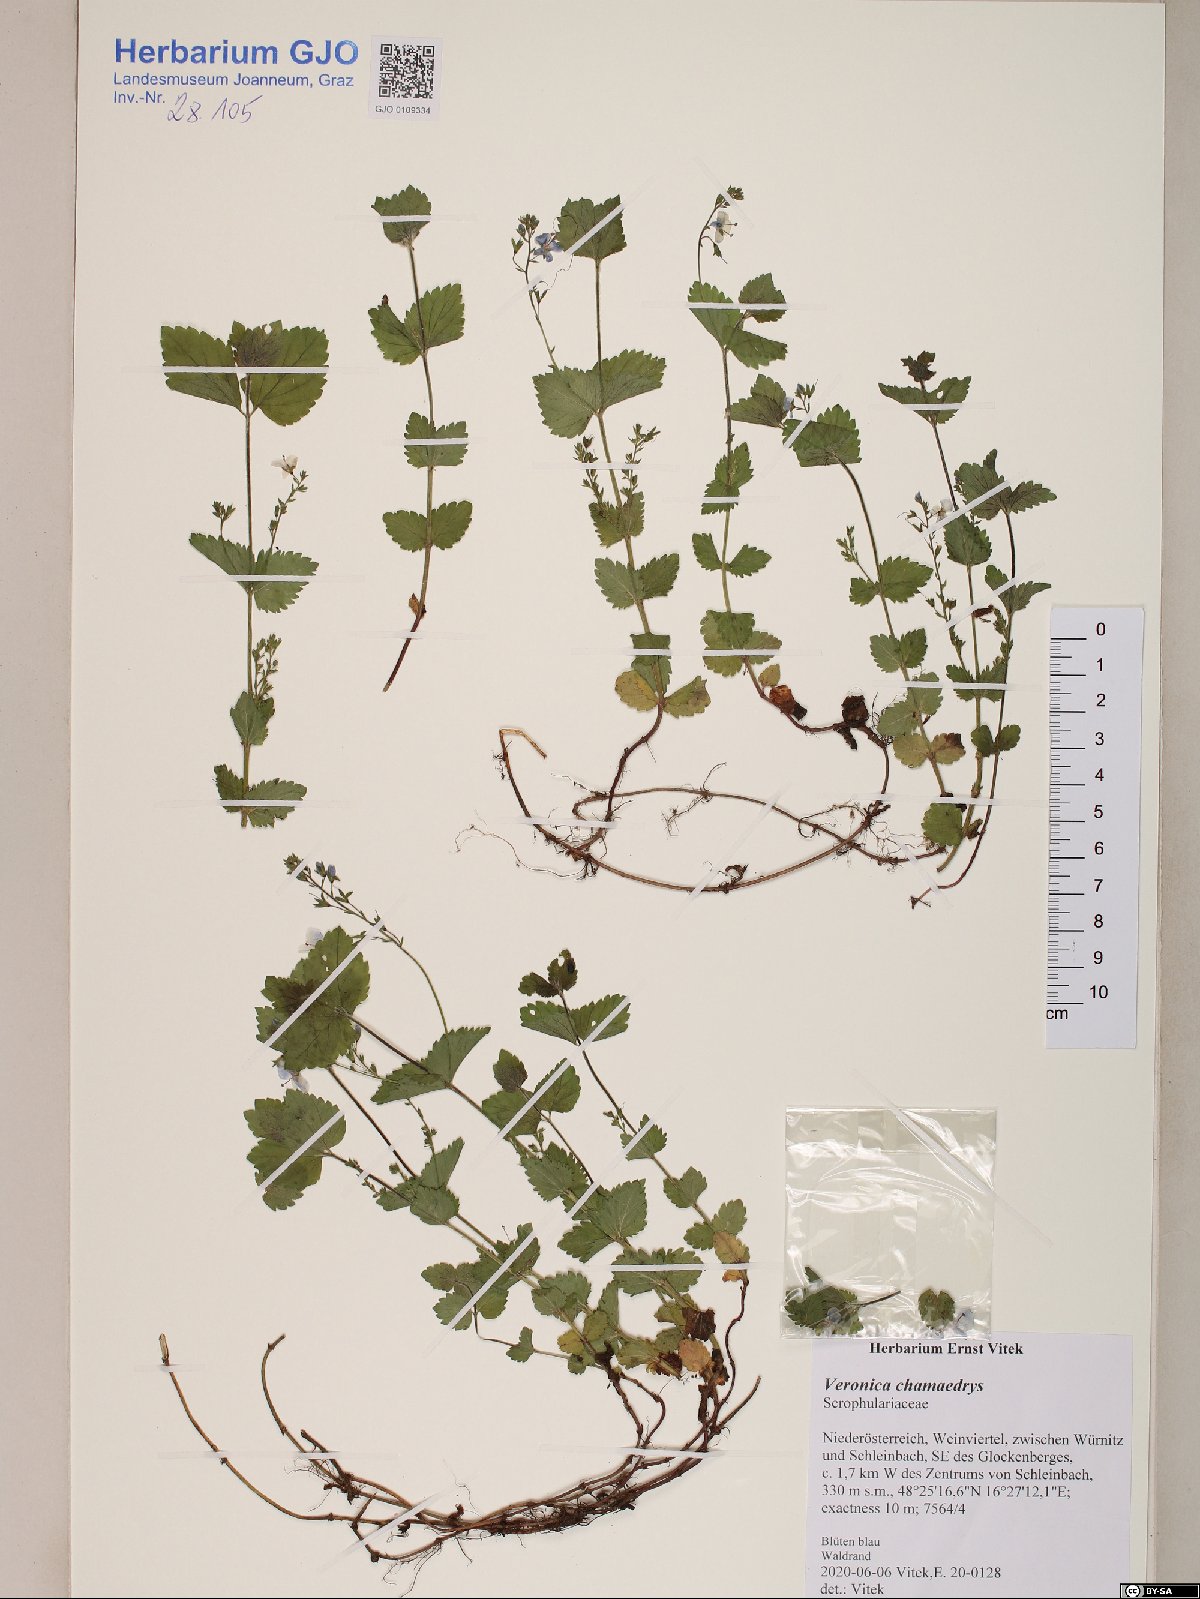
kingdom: Plantae
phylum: Tracheophyta
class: Magnoliopsida
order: Lamiales
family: Plantaginaceae
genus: Veronica
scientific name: Veronica chamaedrys
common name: Germander speedwell
